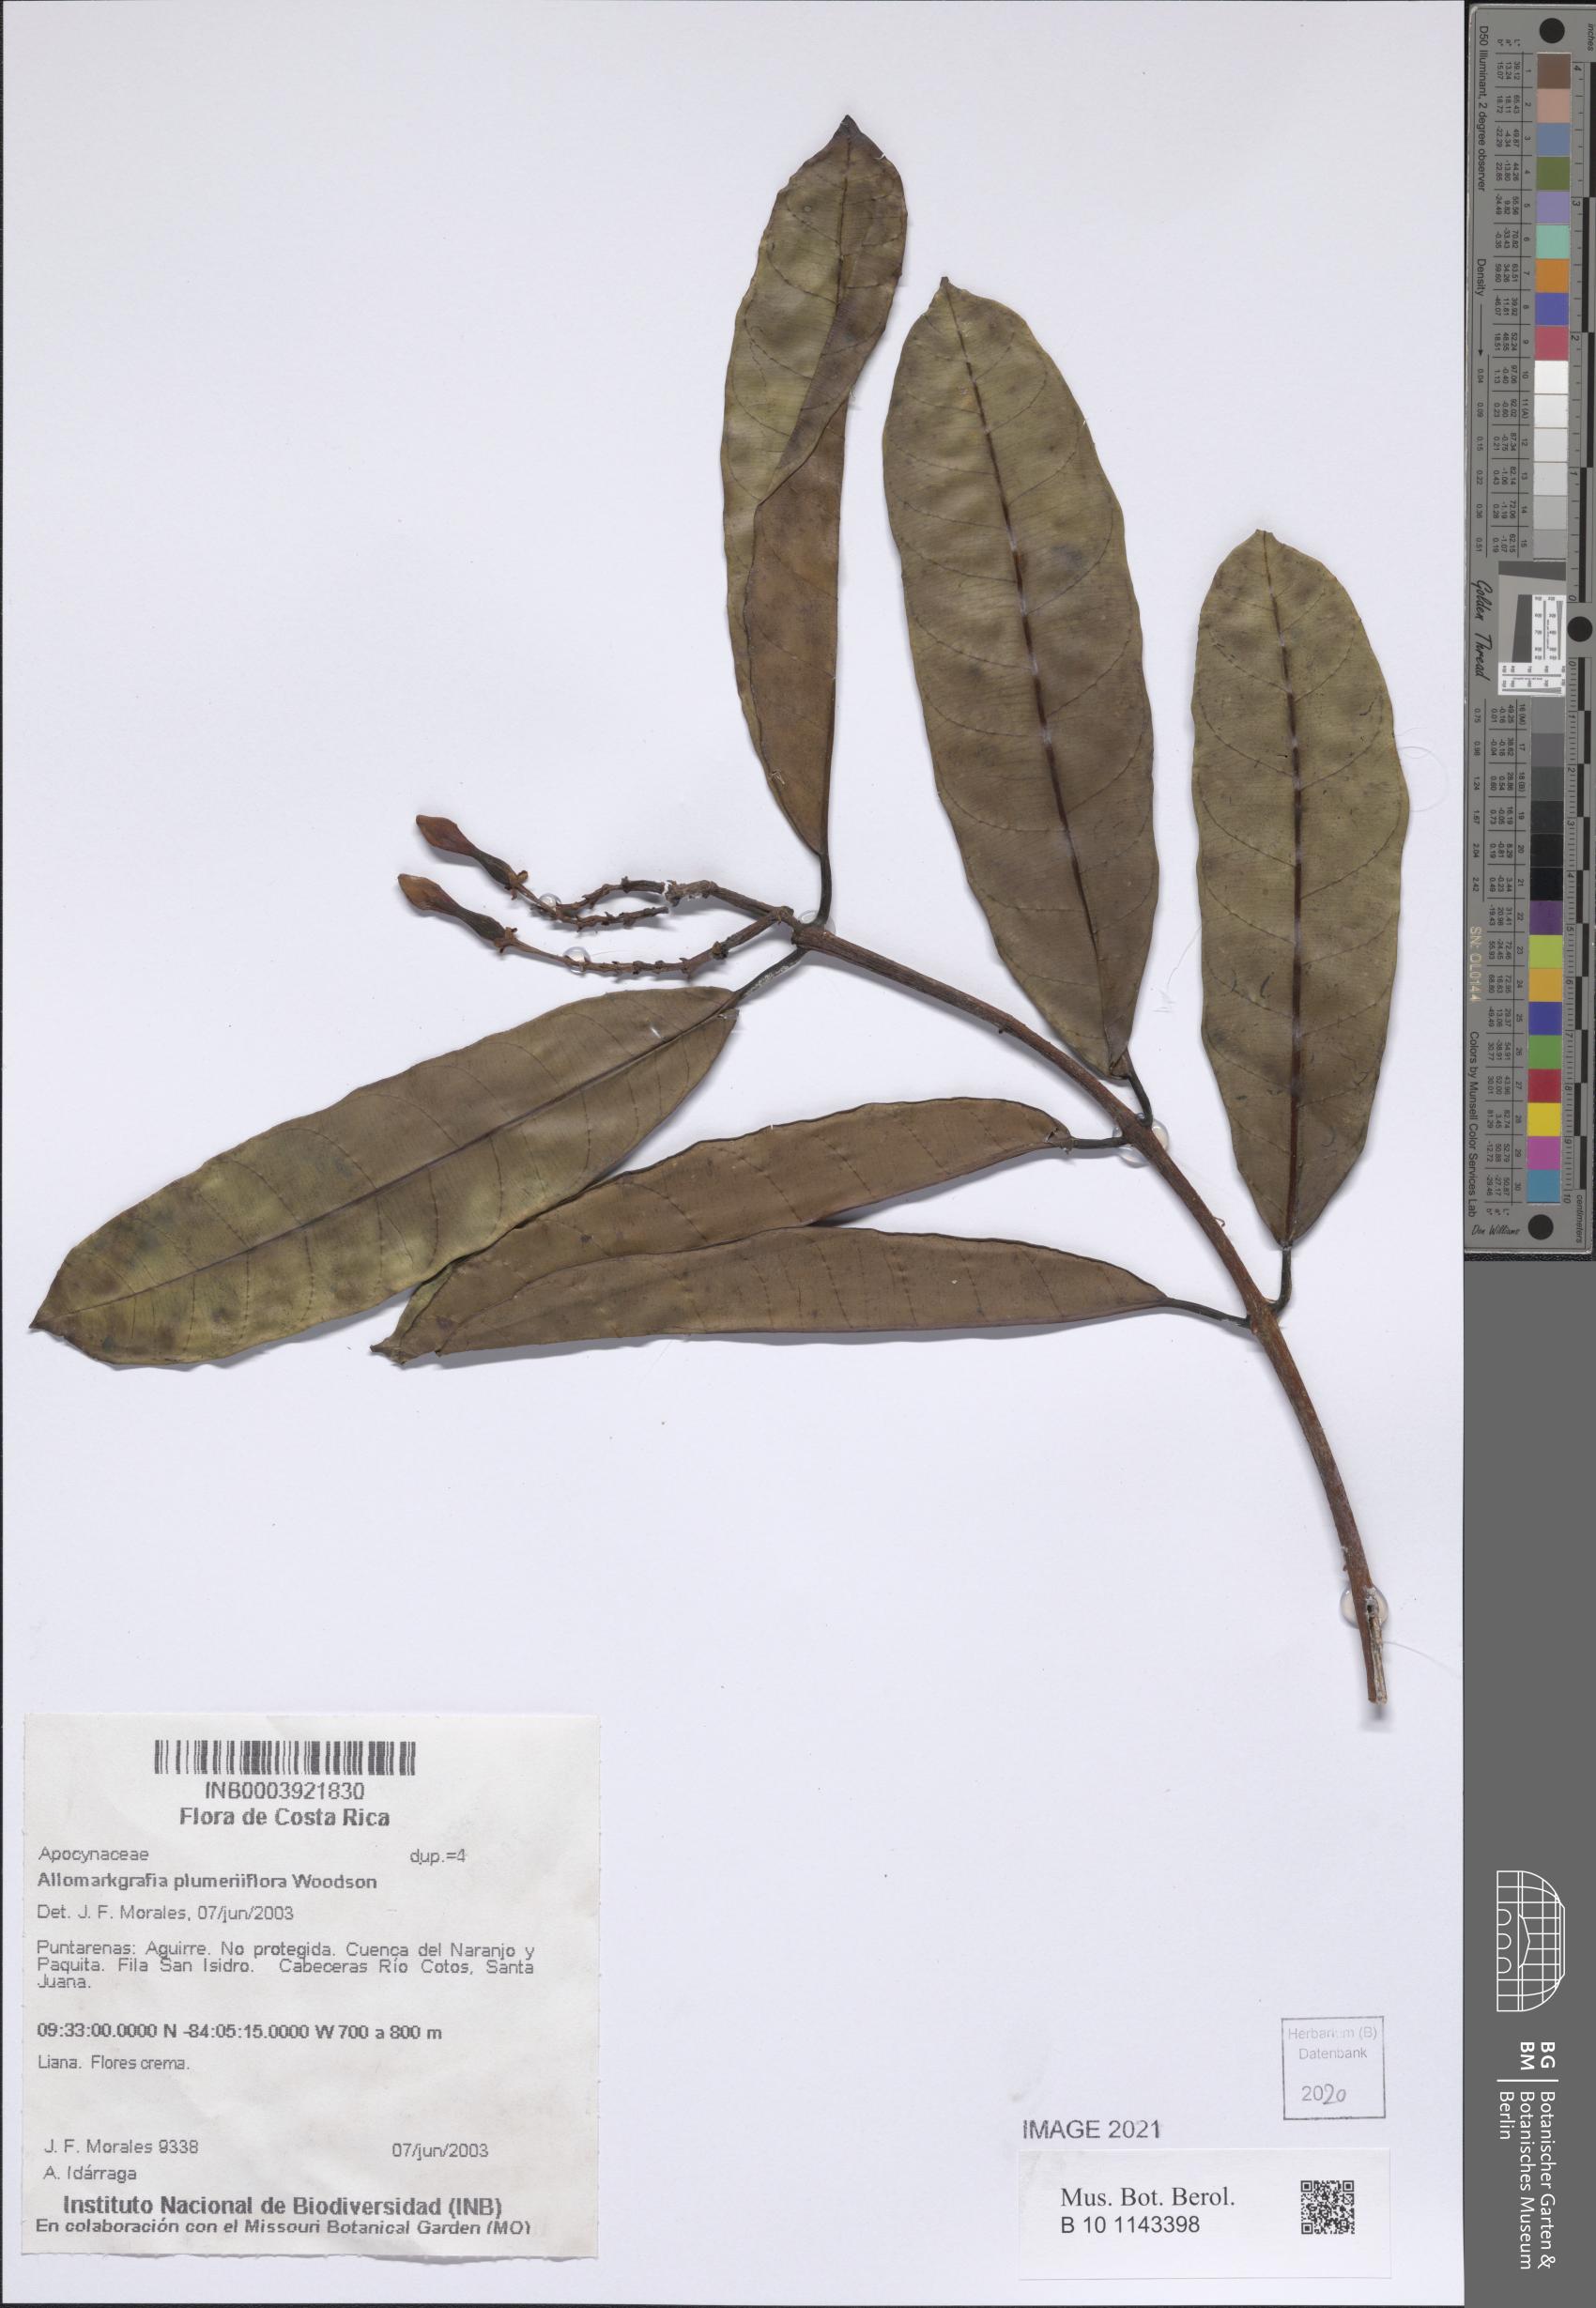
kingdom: Plantae
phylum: Tracheophyta
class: Magnoliopsida
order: Gentianales
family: Apocynaceae
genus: Allomarkgrafia
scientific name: Allomarkgrafia plumeriiflora
